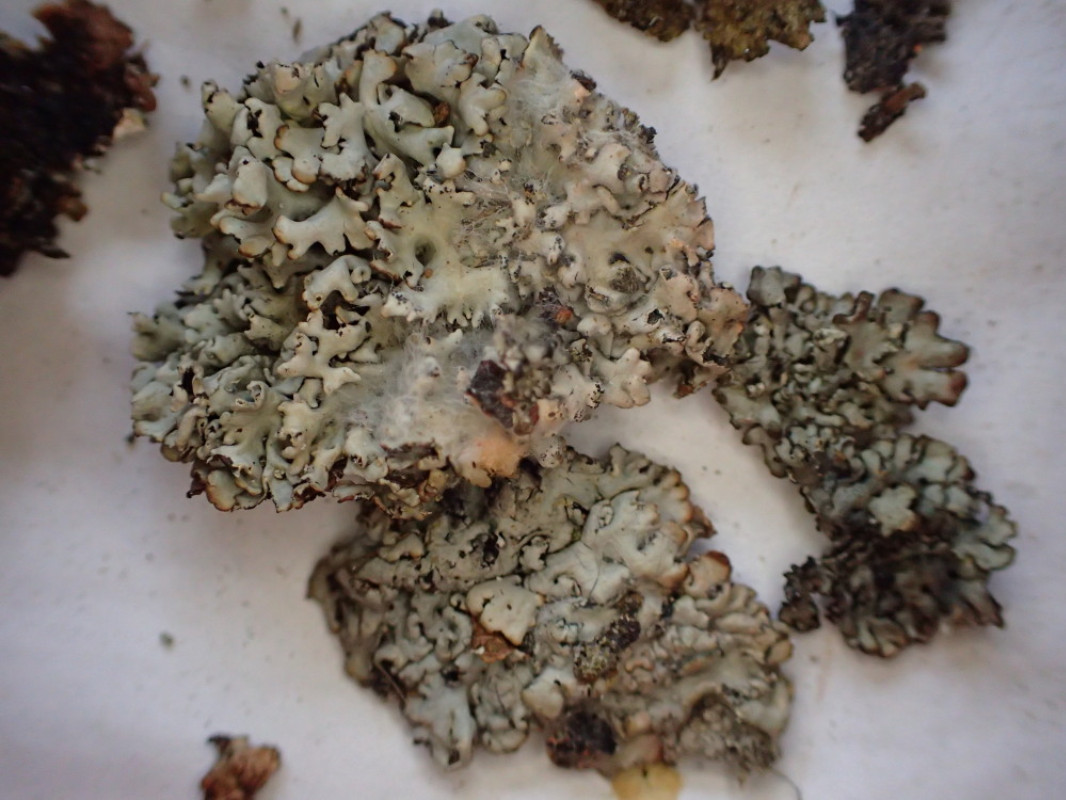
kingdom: Fungi
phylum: Ascomycota
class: Lecanoromycetes
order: Lecanorales
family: Parmeliaceae
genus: Hypogymnia
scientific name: Hypogymnia physodes
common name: almindelig kvistlav
